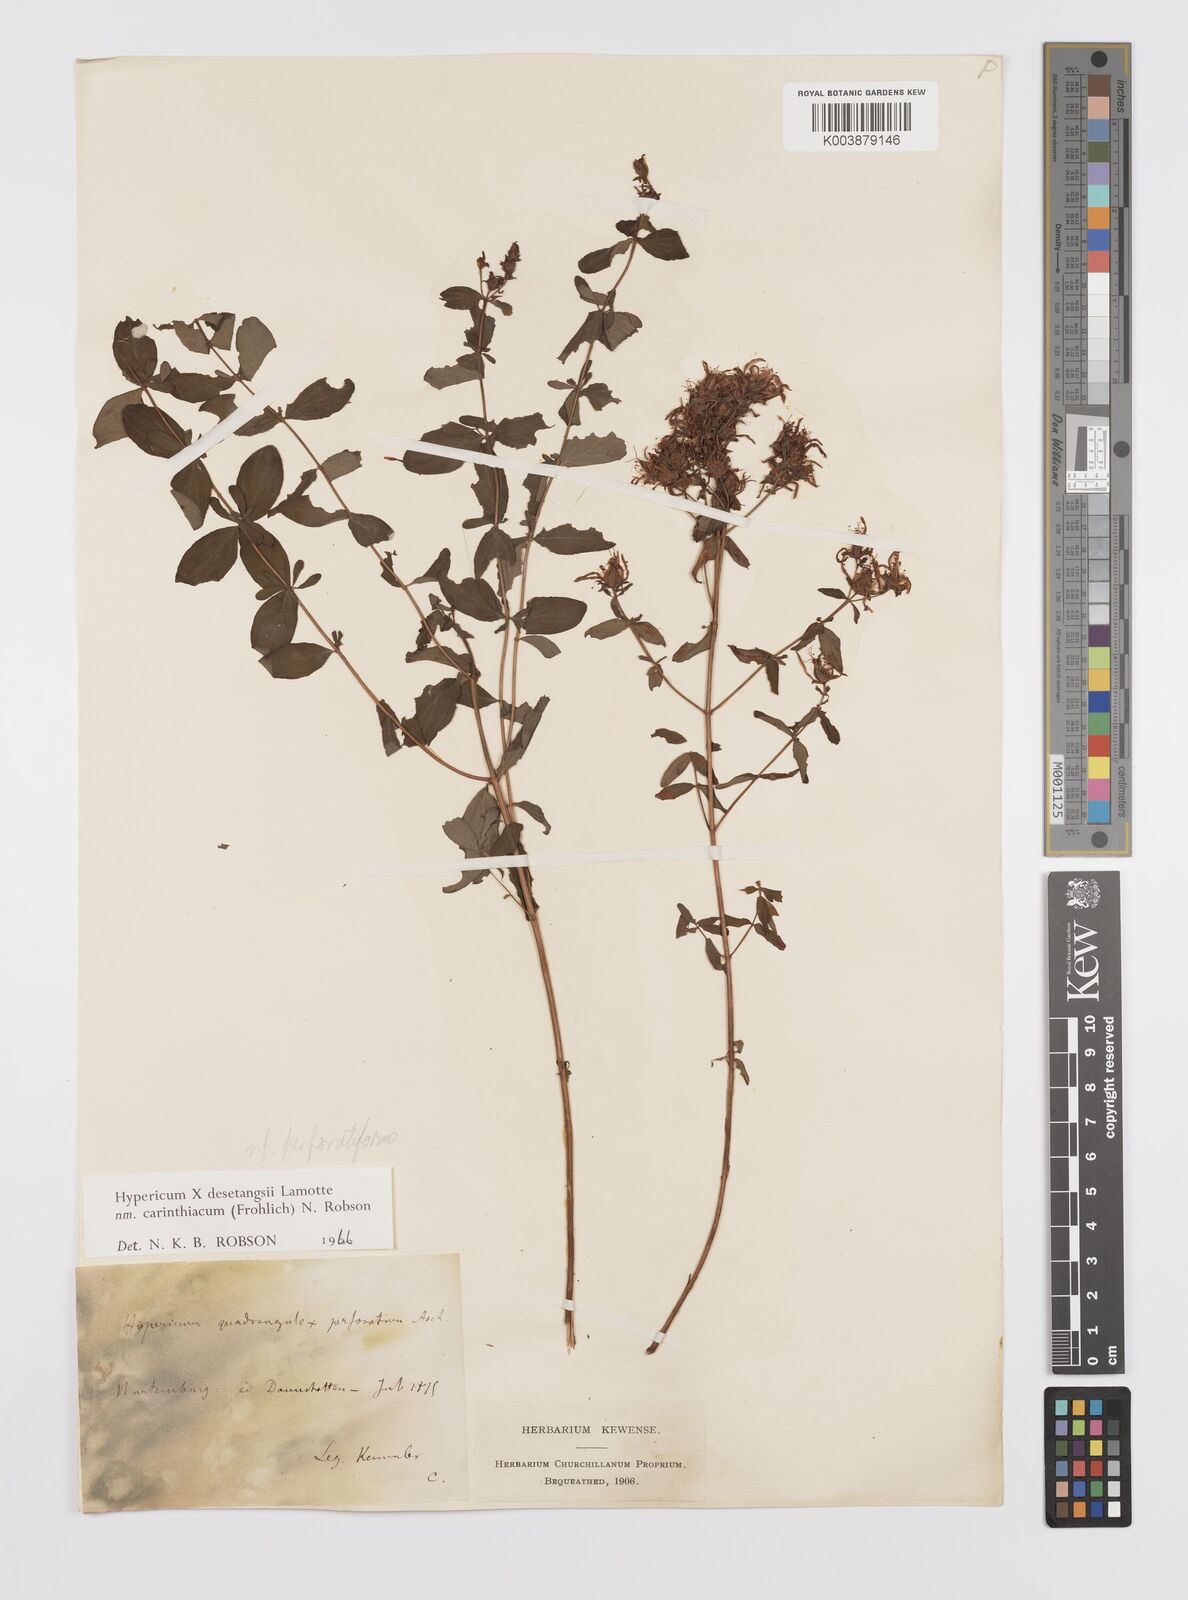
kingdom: Plantae
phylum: Tracheophyta
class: Magnoliopsida
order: Malpighiales
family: Hypericaceae
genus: Hypericum
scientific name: Hypericum maculatum
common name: Imperforate st. john's-wort
